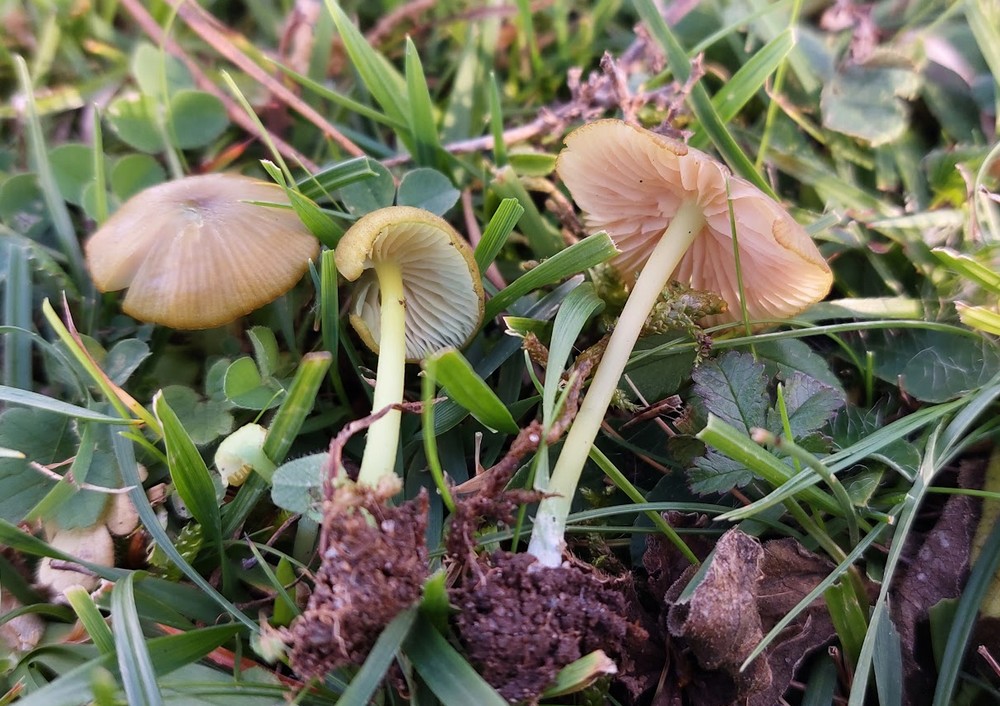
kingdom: Fungi
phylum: Basidiomycota
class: Agaricomycetes
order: Agaricales
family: Entolomataceae
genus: Entoloma
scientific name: Entoloma verae
